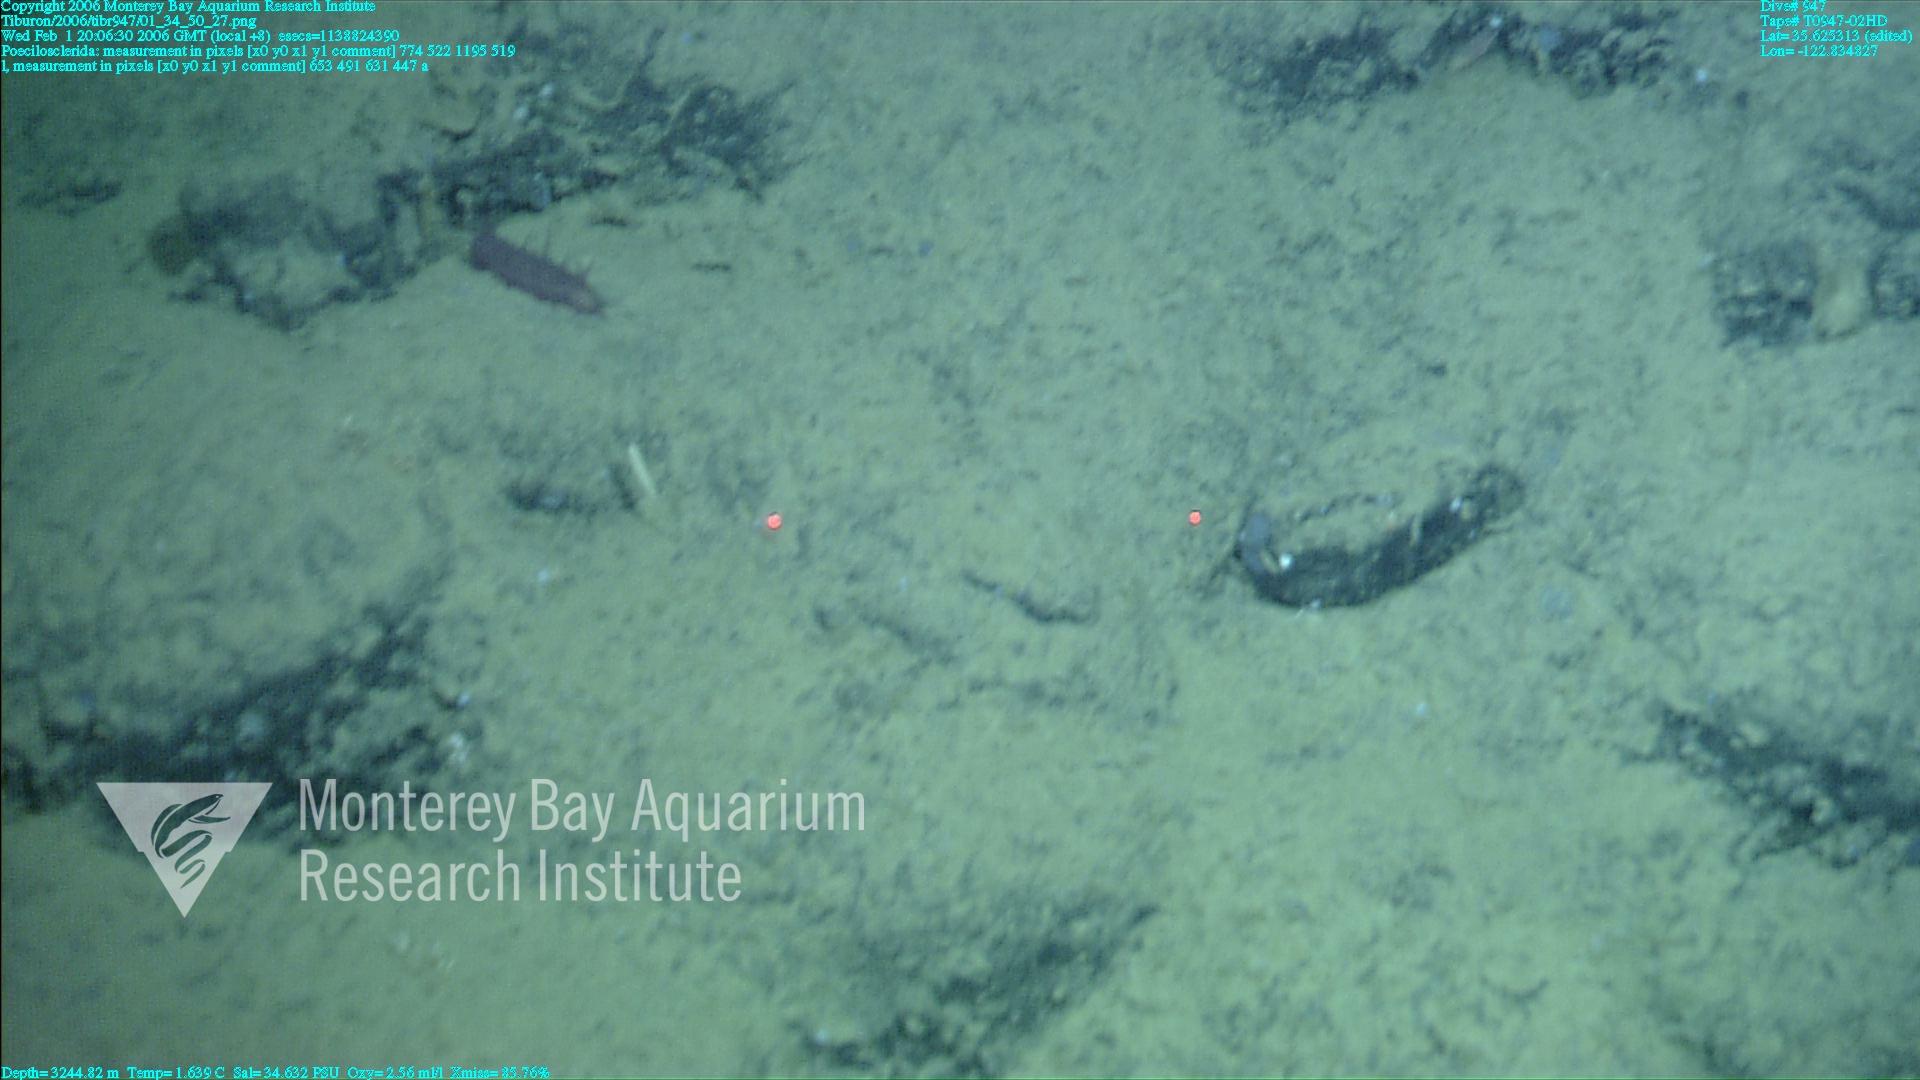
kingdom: Animalia
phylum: Porifera
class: Demospongiae
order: Poecilosclerida
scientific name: Poecilosclerida
